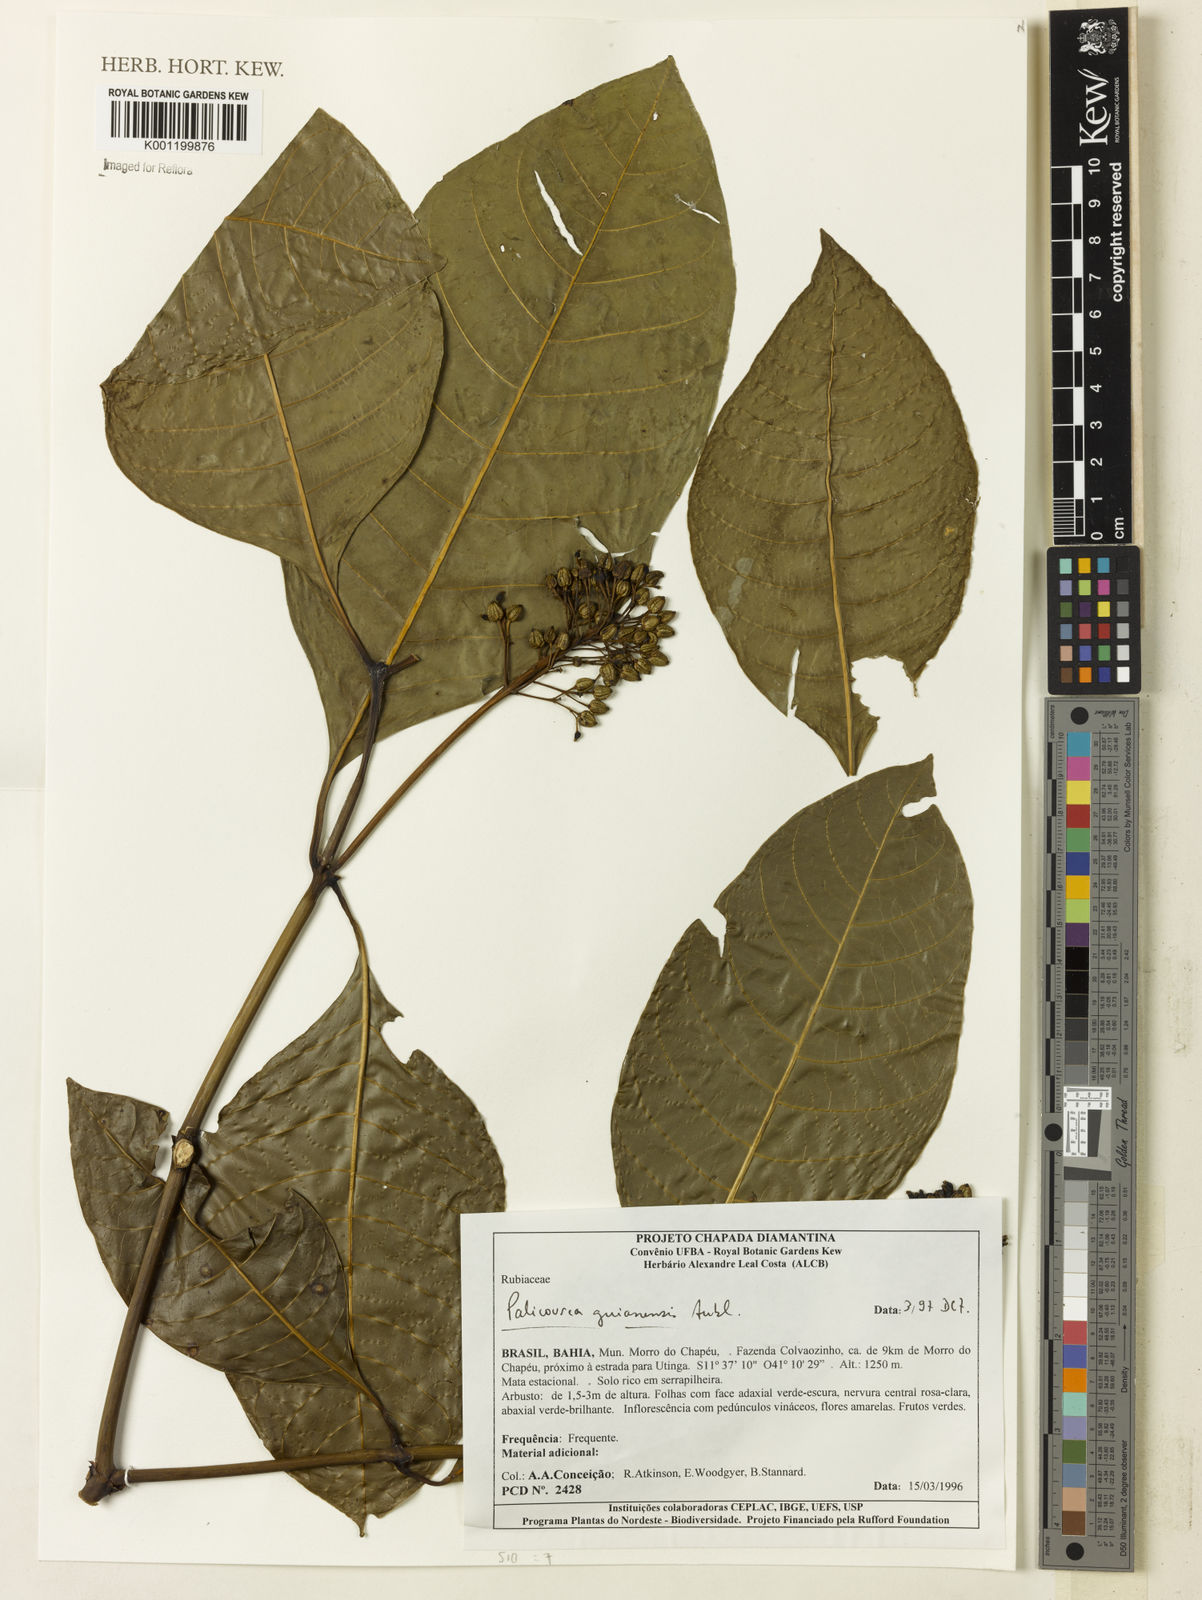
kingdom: Plantae
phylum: Tracheophyta
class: Magnoliopsida
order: Gentianales
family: Rubiaceae
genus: Palicourea
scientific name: Palicourea guianensis
